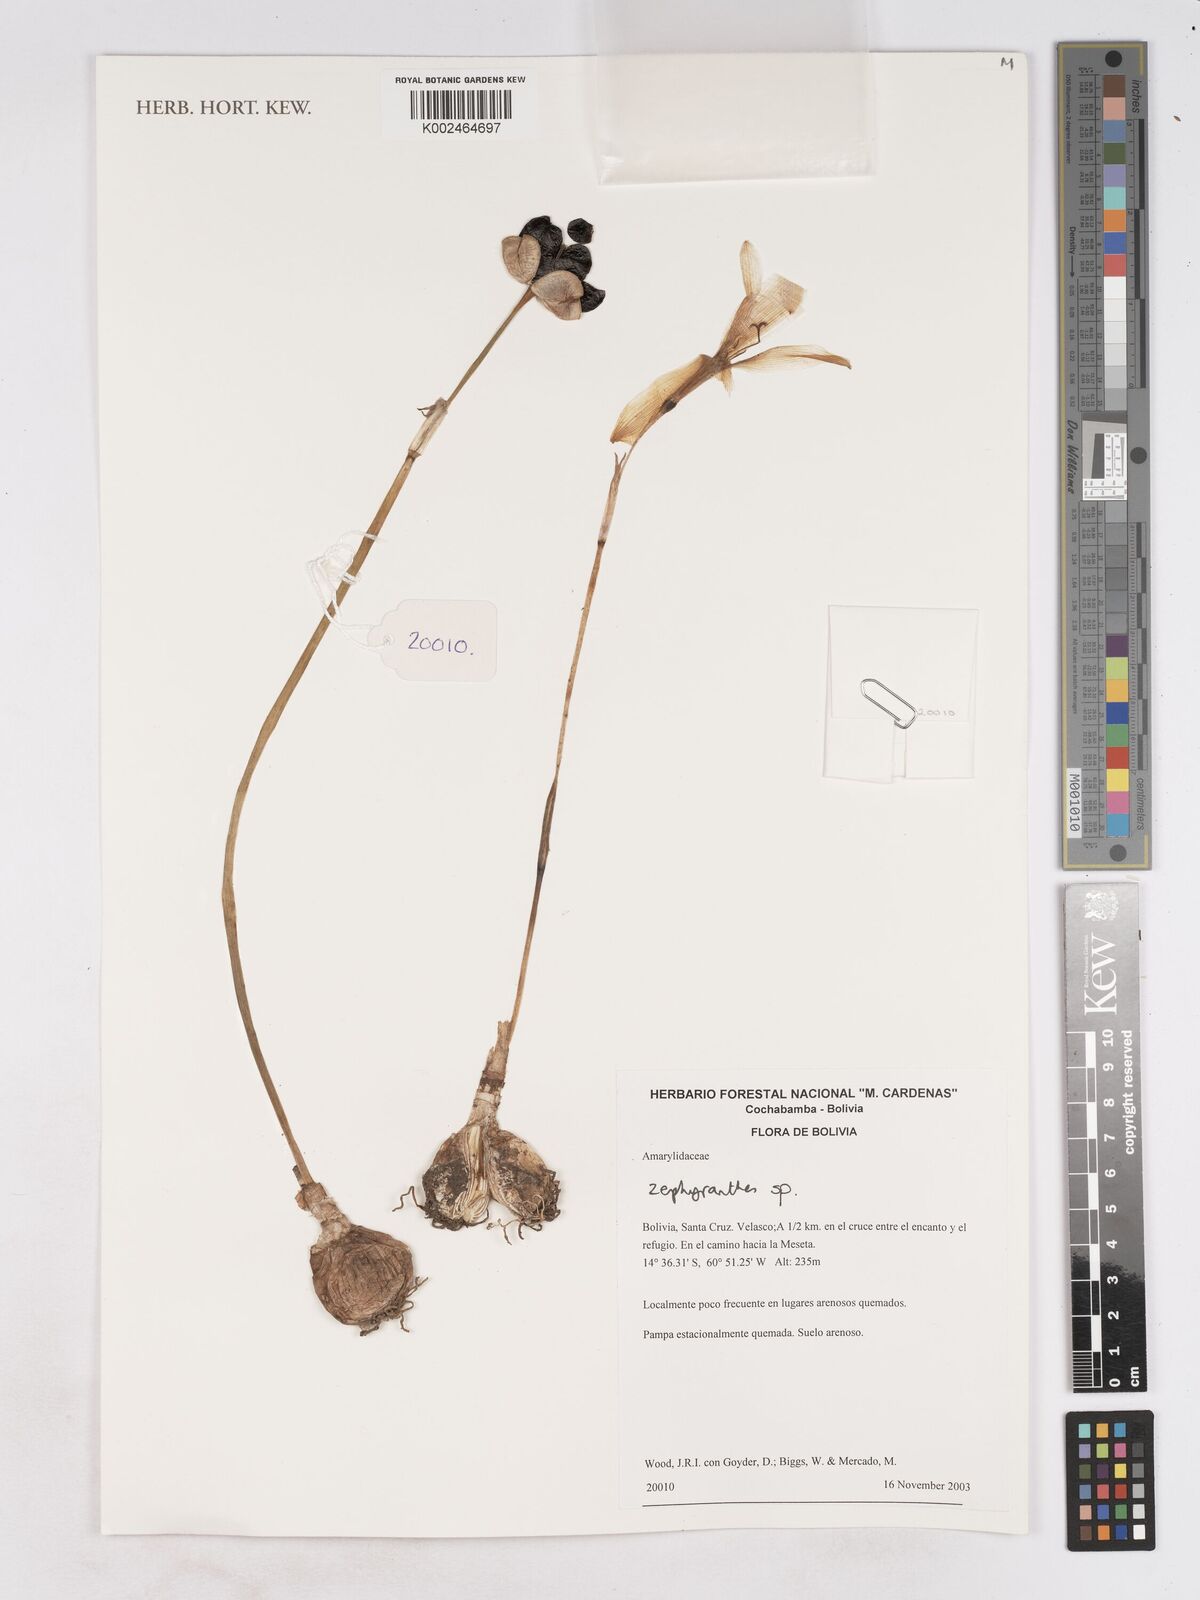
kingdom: Plantae
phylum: Tracheophyta
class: Liliopsida
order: Asparagales
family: Amaryllidaceae
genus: Zephyranthes
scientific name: Zephyranthes
